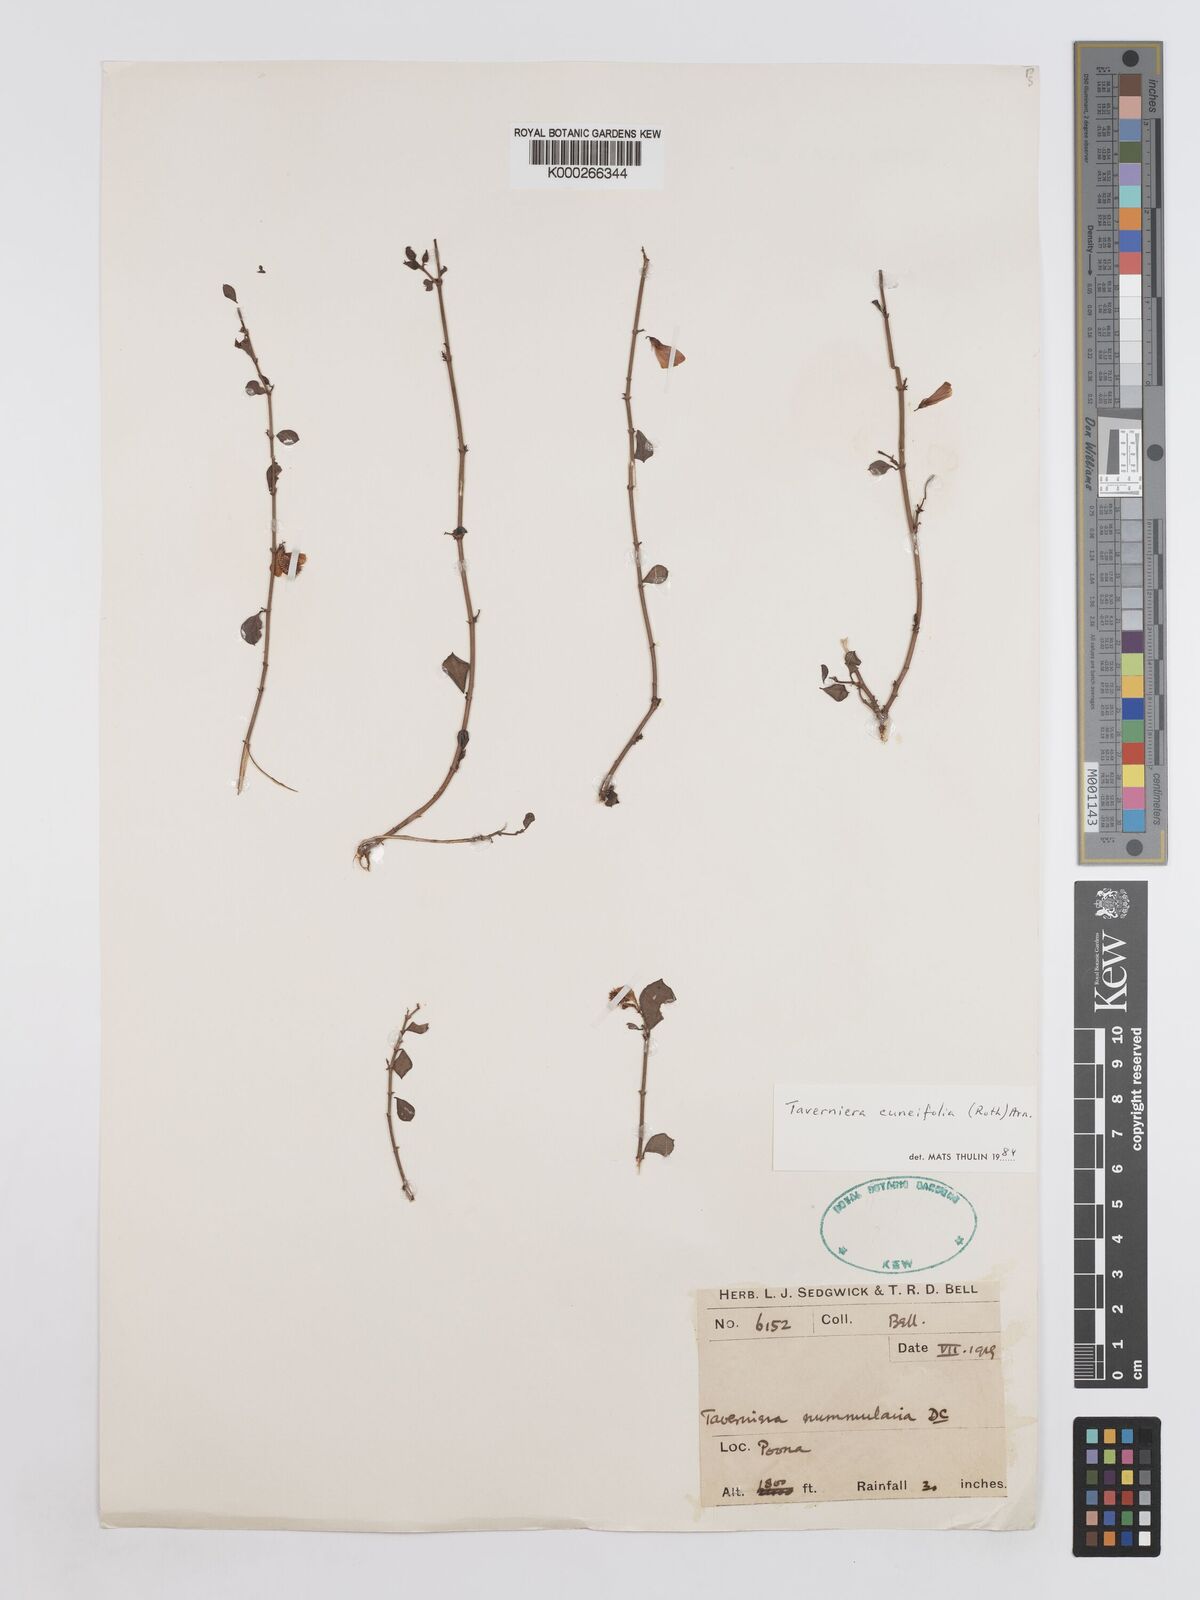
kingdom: Plantae
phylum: Tracheophyta
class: Magnoliopsida
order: Fabales
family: Fabaceae
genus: Taverniera
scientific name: Taverniera cuneifolia
